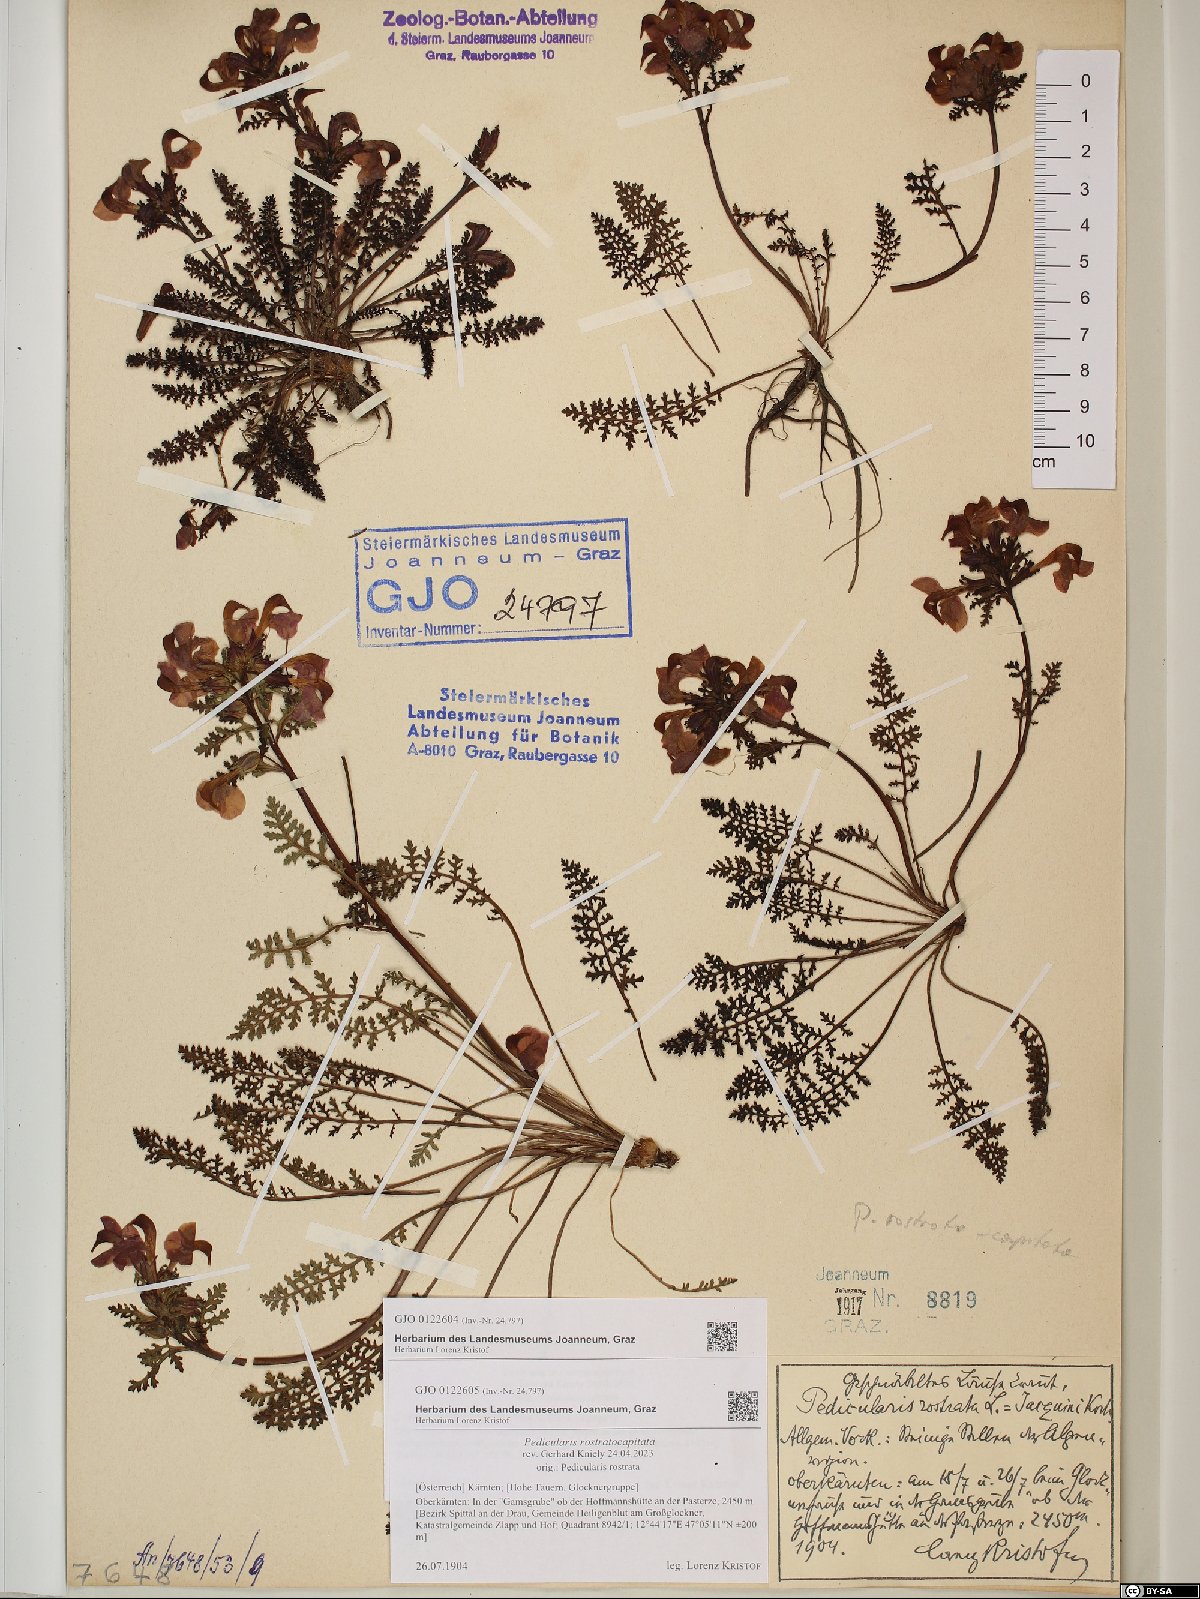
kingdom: Plantae
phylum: Tracheophyta
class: Magnoliopsida
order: Lamiales
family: Orobanchaceae
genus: Pedicularis
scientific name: Pedicularis rostratocapitata
